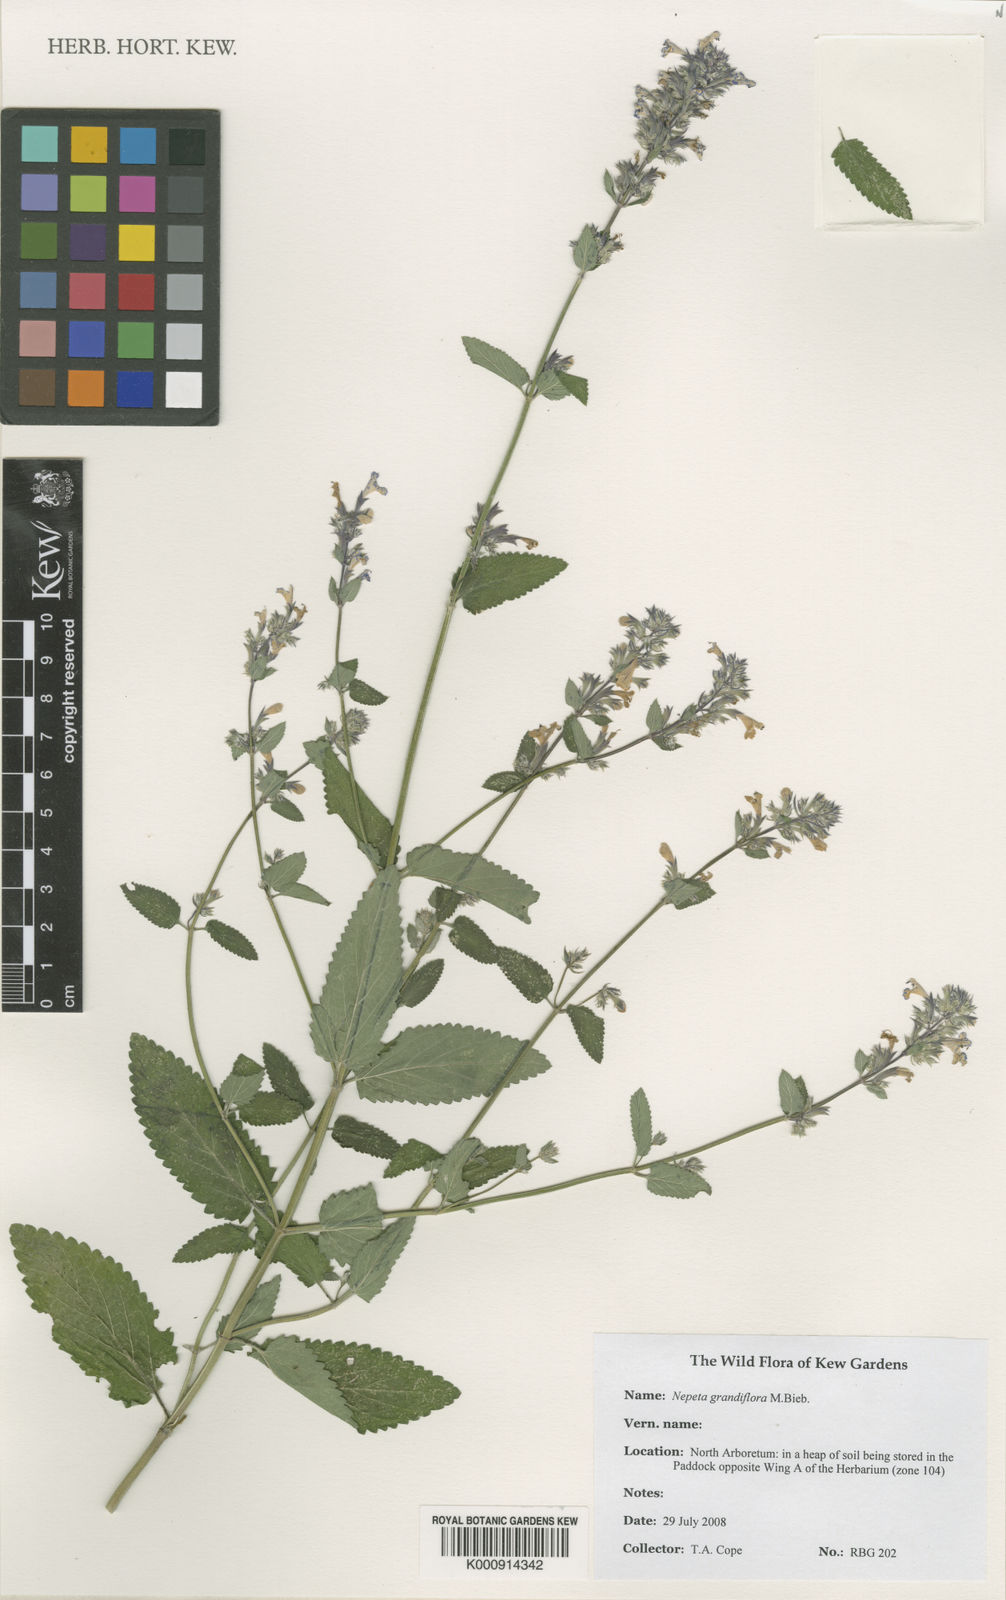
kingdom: Plantae
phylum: Tracheophyta
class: Magnoliopsida
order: Lamiales
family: Lamiaceae
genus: Nepeta
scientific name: Nepeta grandiflora
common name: Caucasus catmint
